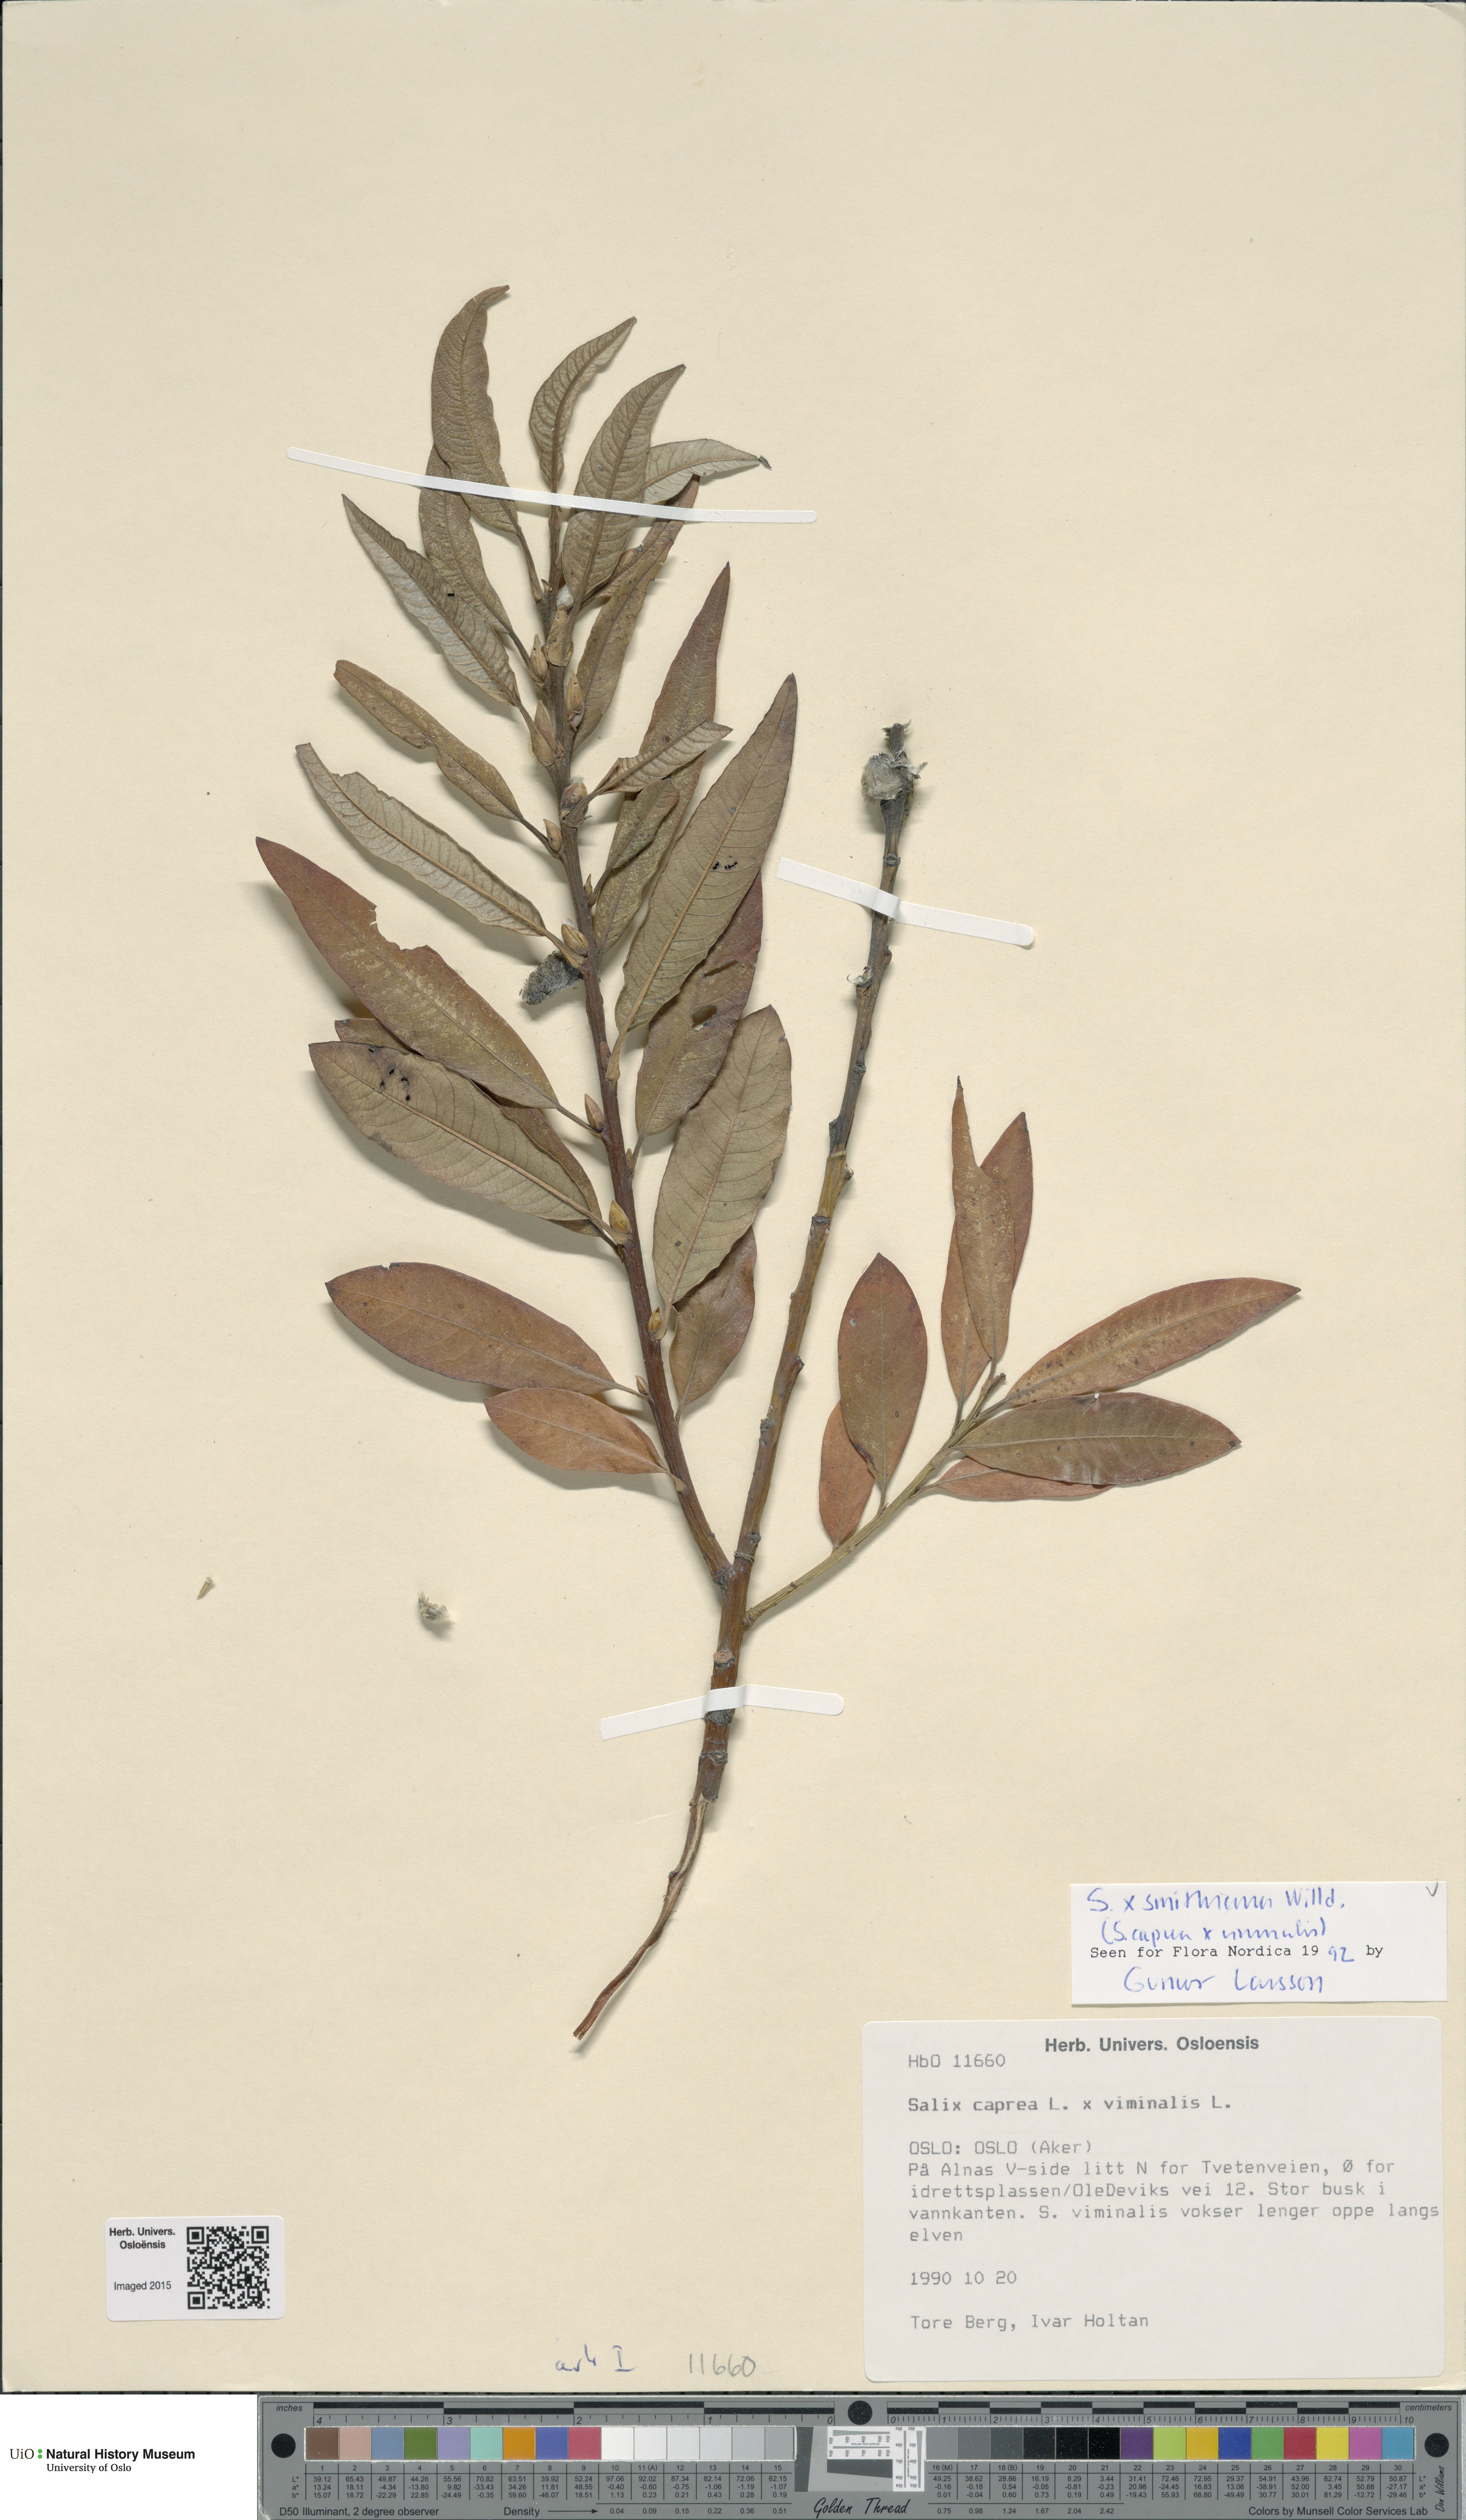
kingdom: Plantae
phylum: Tracheophyta
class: Magnoliopsida
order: Malpighiales
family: Salicaceae
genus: Salix
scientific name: Salix smithiana
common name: Silky-leaved osier
